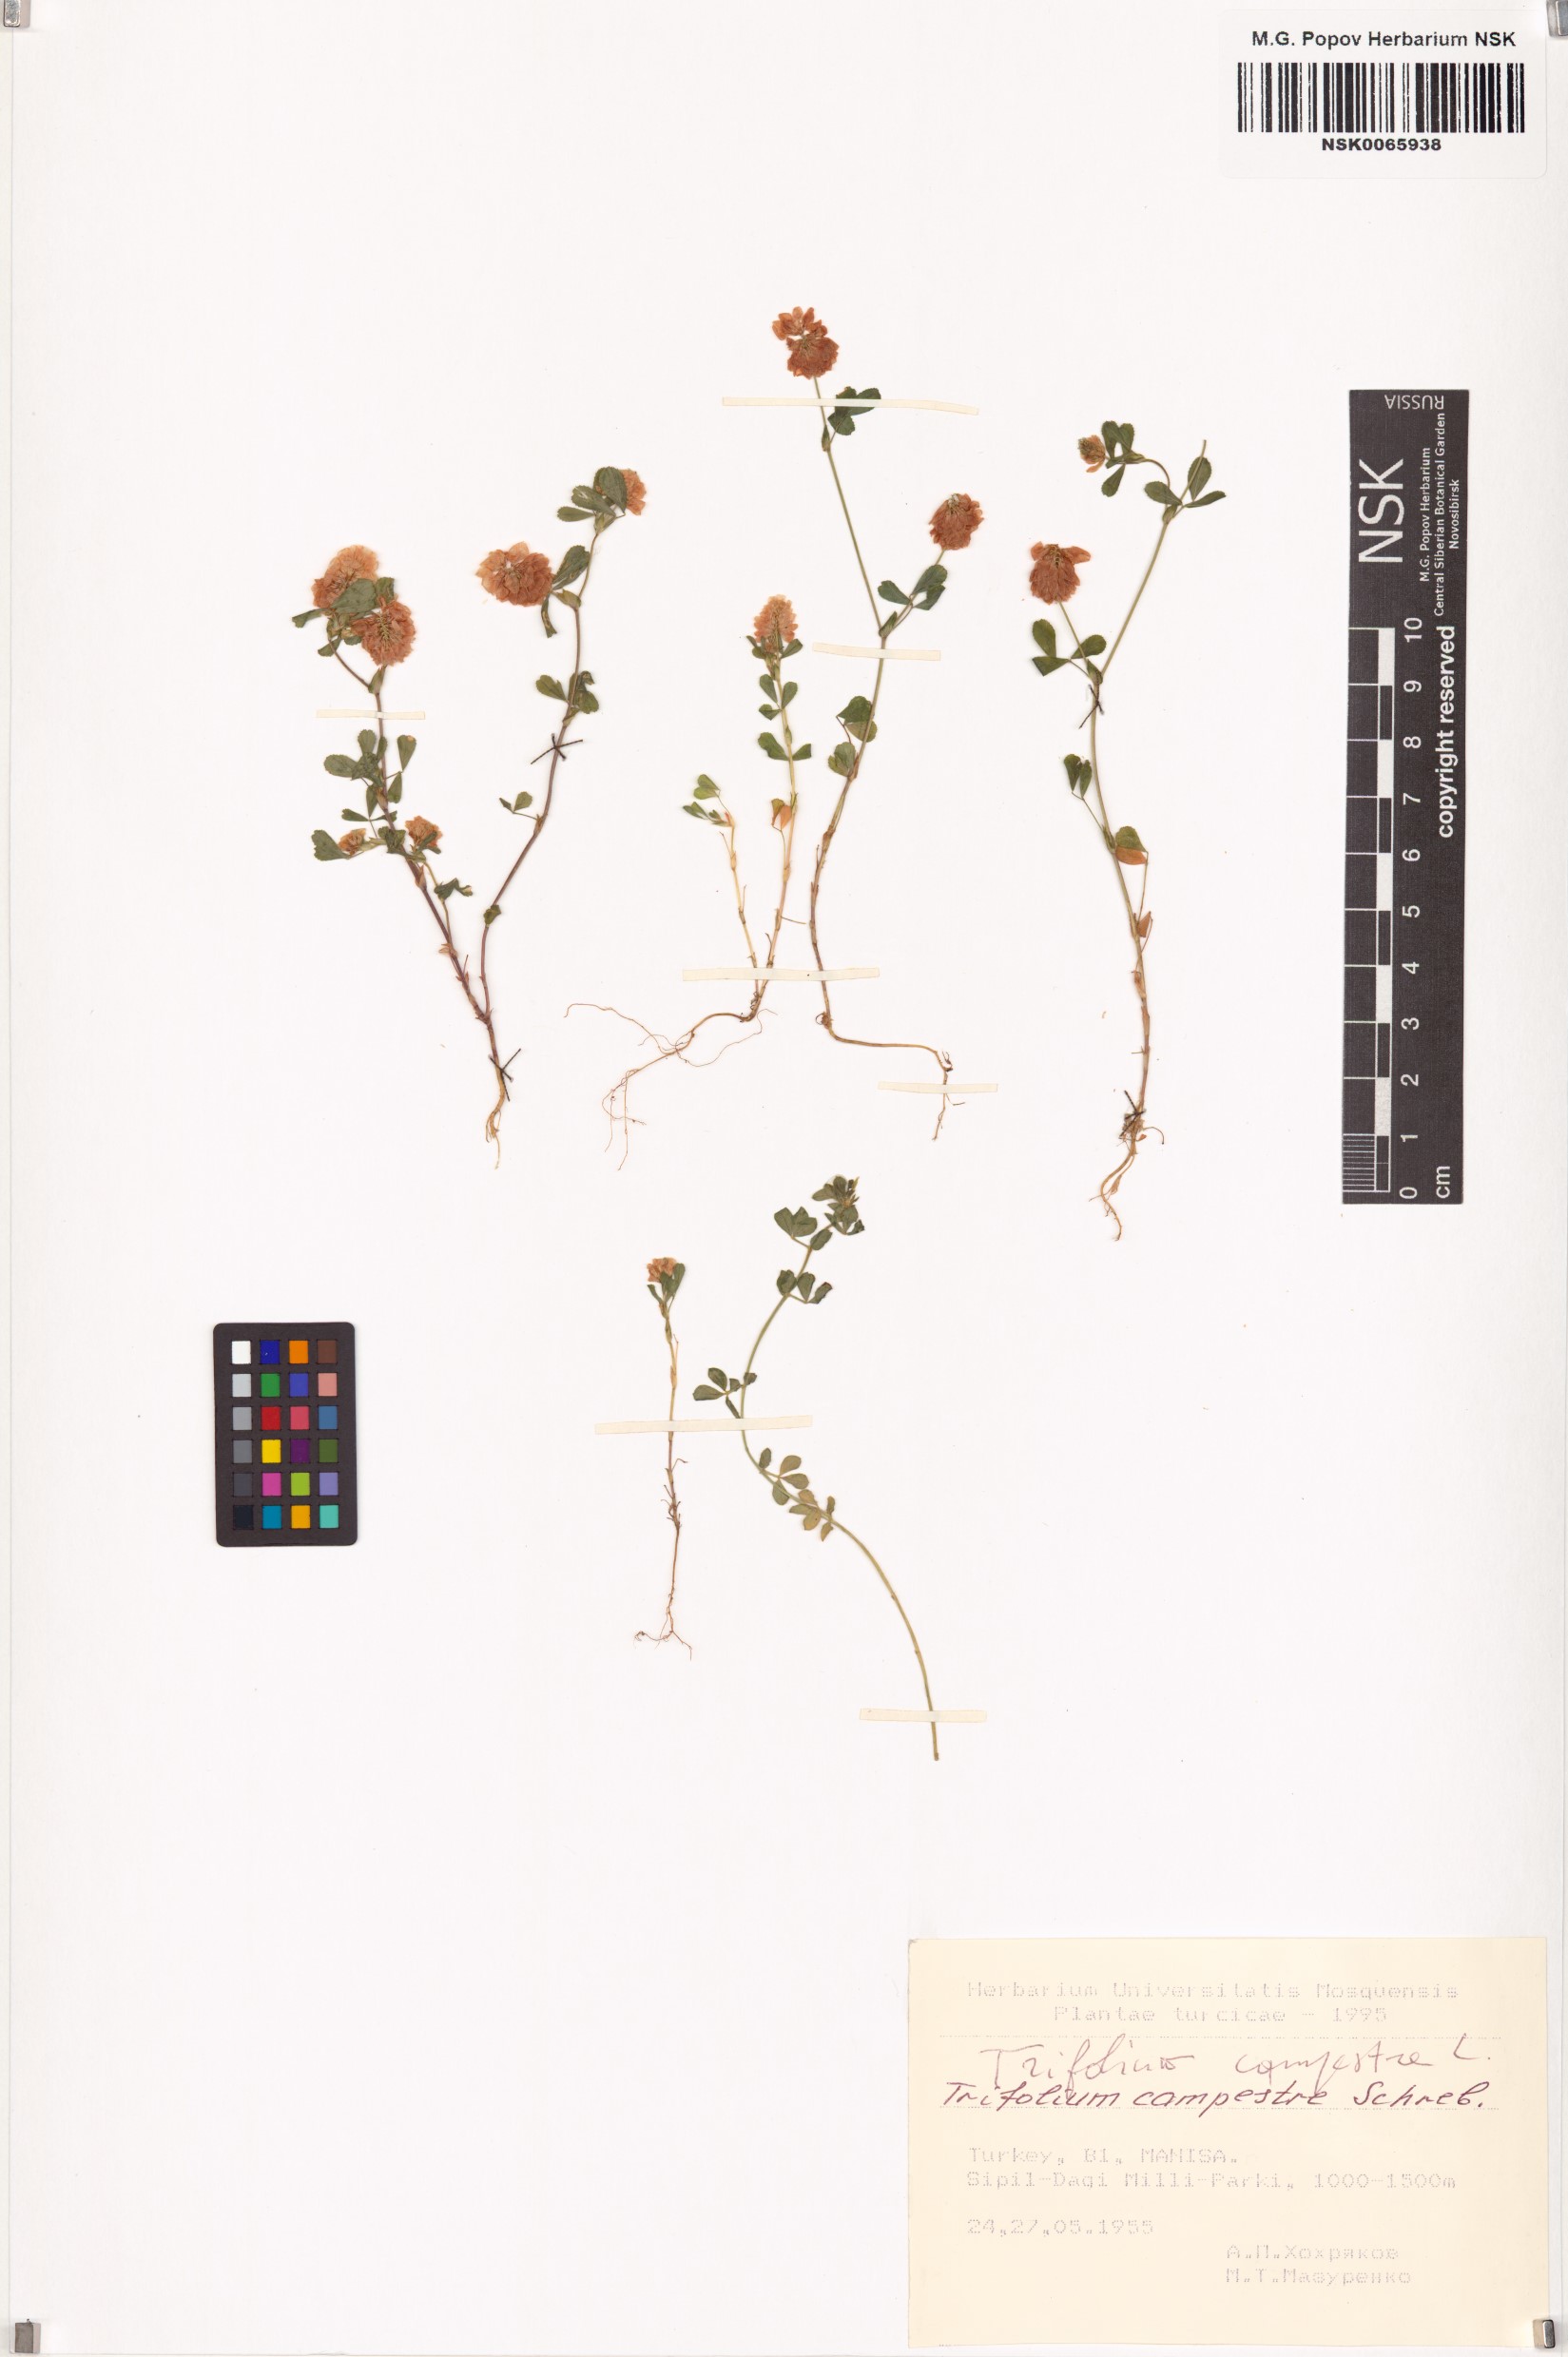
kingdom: Plantae
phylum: Tracheophyta
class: Magnoliopsida
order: Fabales
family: Fabaceae
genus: Trifolium
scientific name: Trifolium campestre
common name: Field clover
